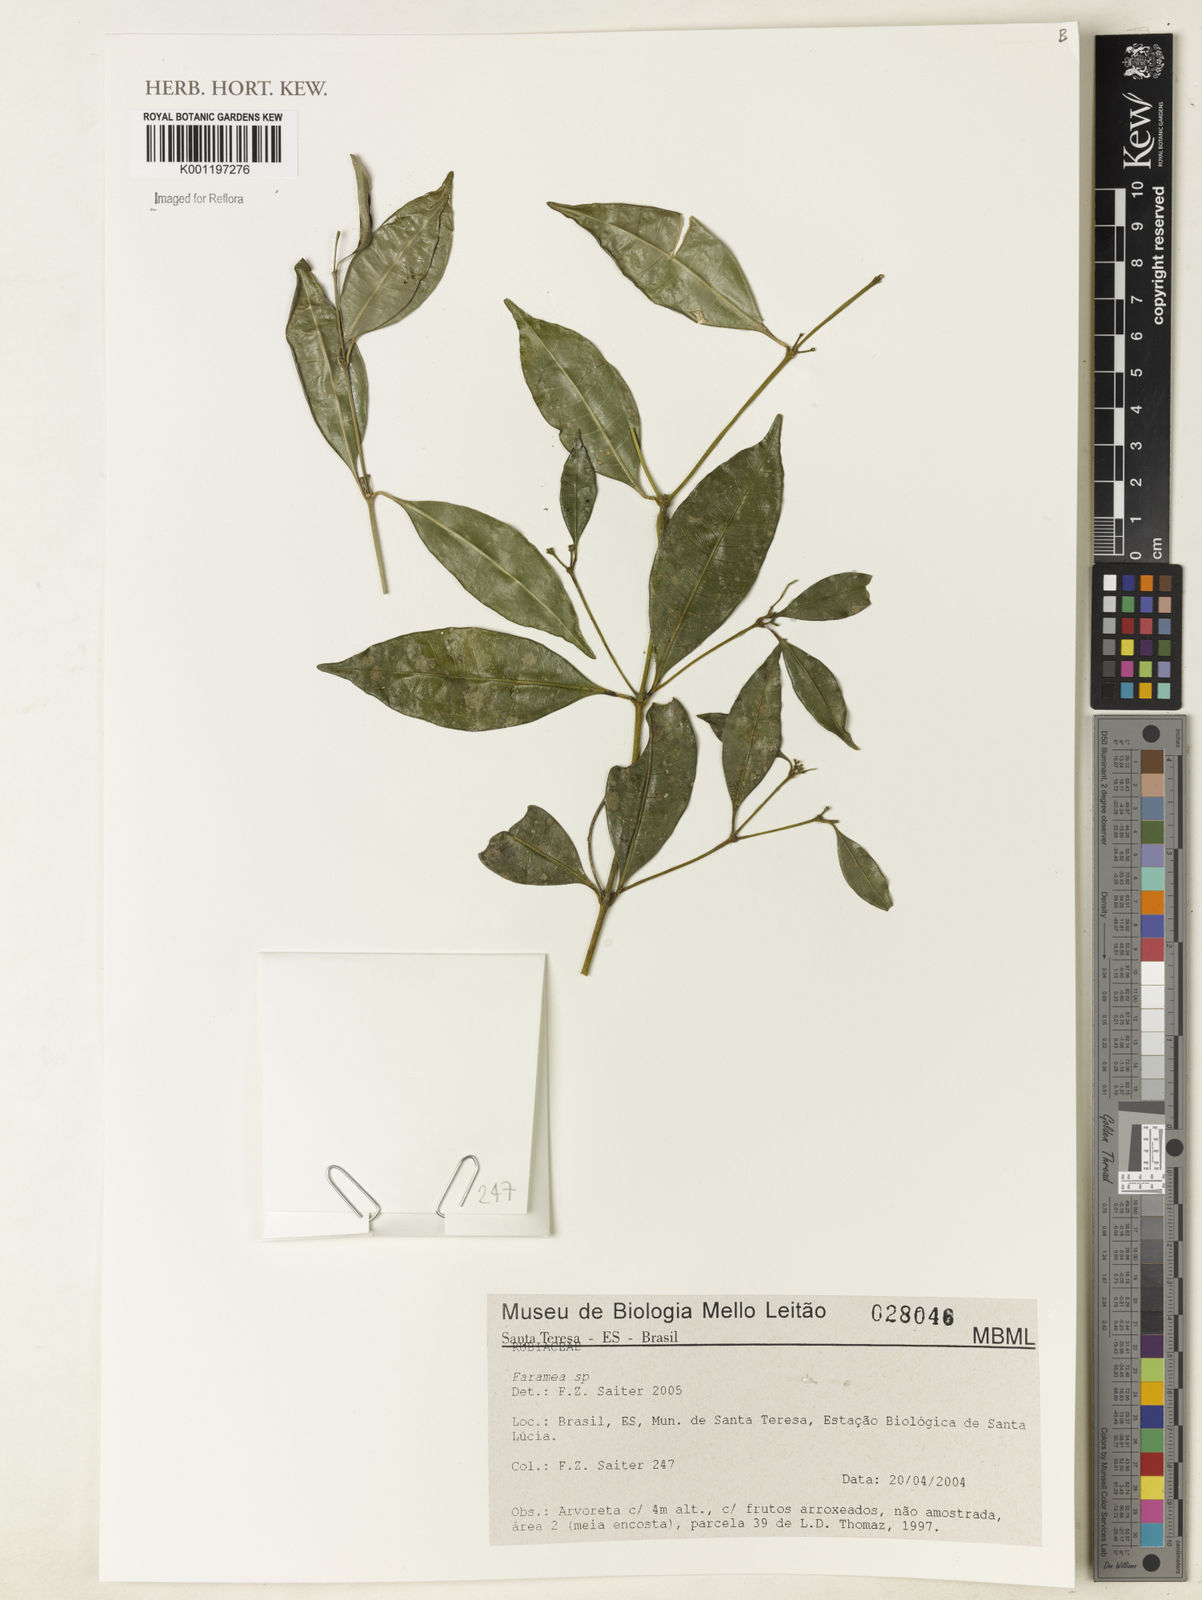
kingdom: Plantae
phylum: Tracheophyta
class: Magnoliopsida
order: Gentianales
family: Rubiaceae
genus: Faramea
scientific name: Faramea
